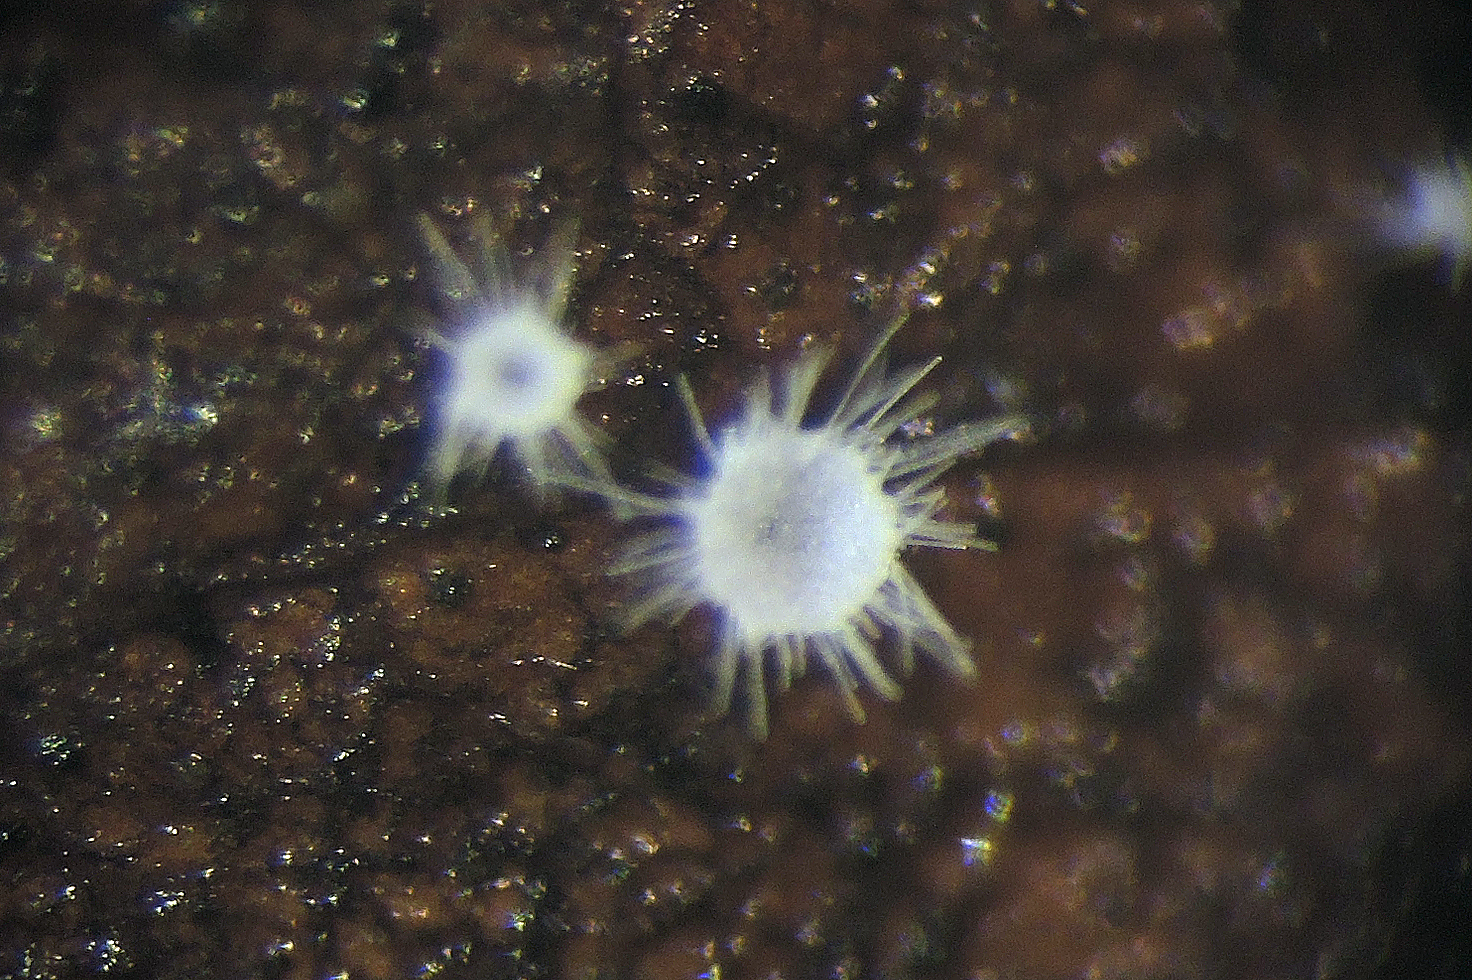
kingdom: Fungi
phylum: Basidiomycota
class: Agaricomycetes
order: Agaricales
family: Niaceae
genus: Flagelloscypha
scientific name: Flagelloscypha niveola
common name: pjusket hængeskål
